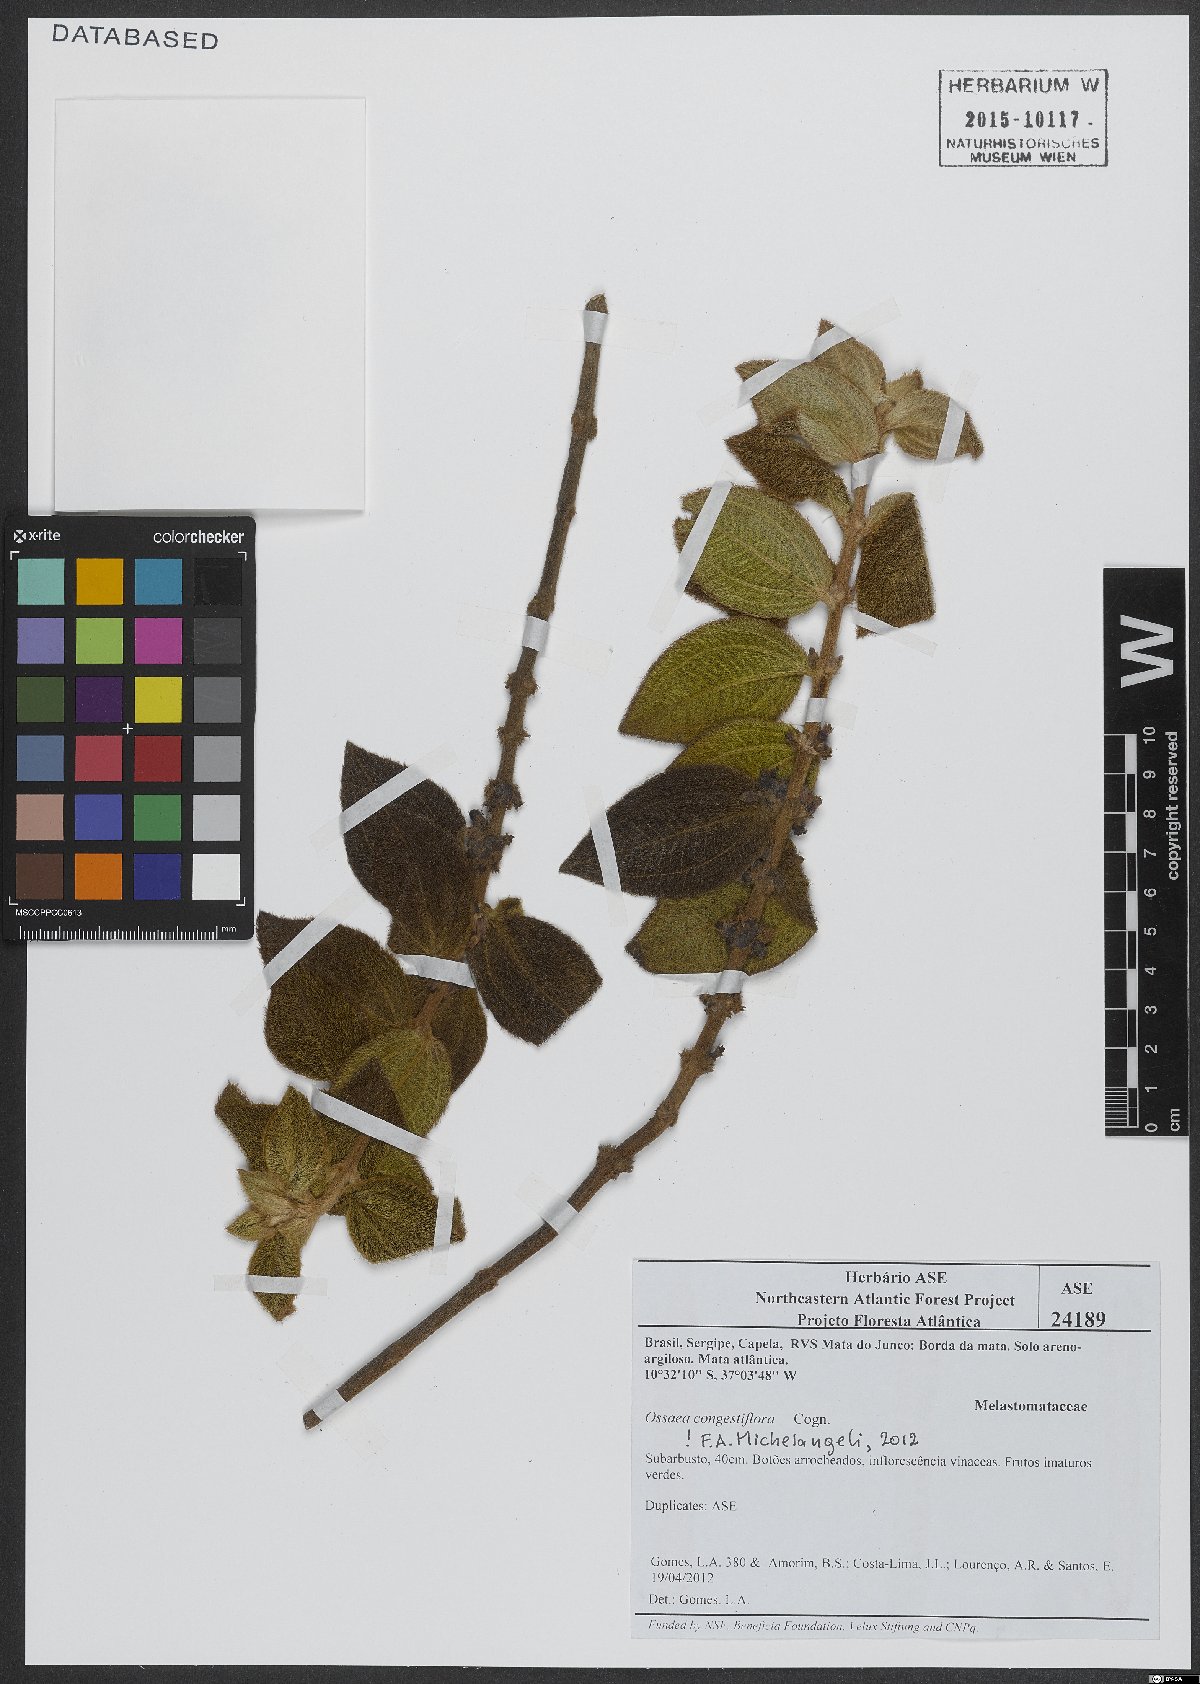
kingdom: Plantae
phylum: Tracheophyta
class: Magnoliopsida
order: Myrtales
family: Melastomataceae
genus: Miconia
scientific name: Miconia leacongestiflora
